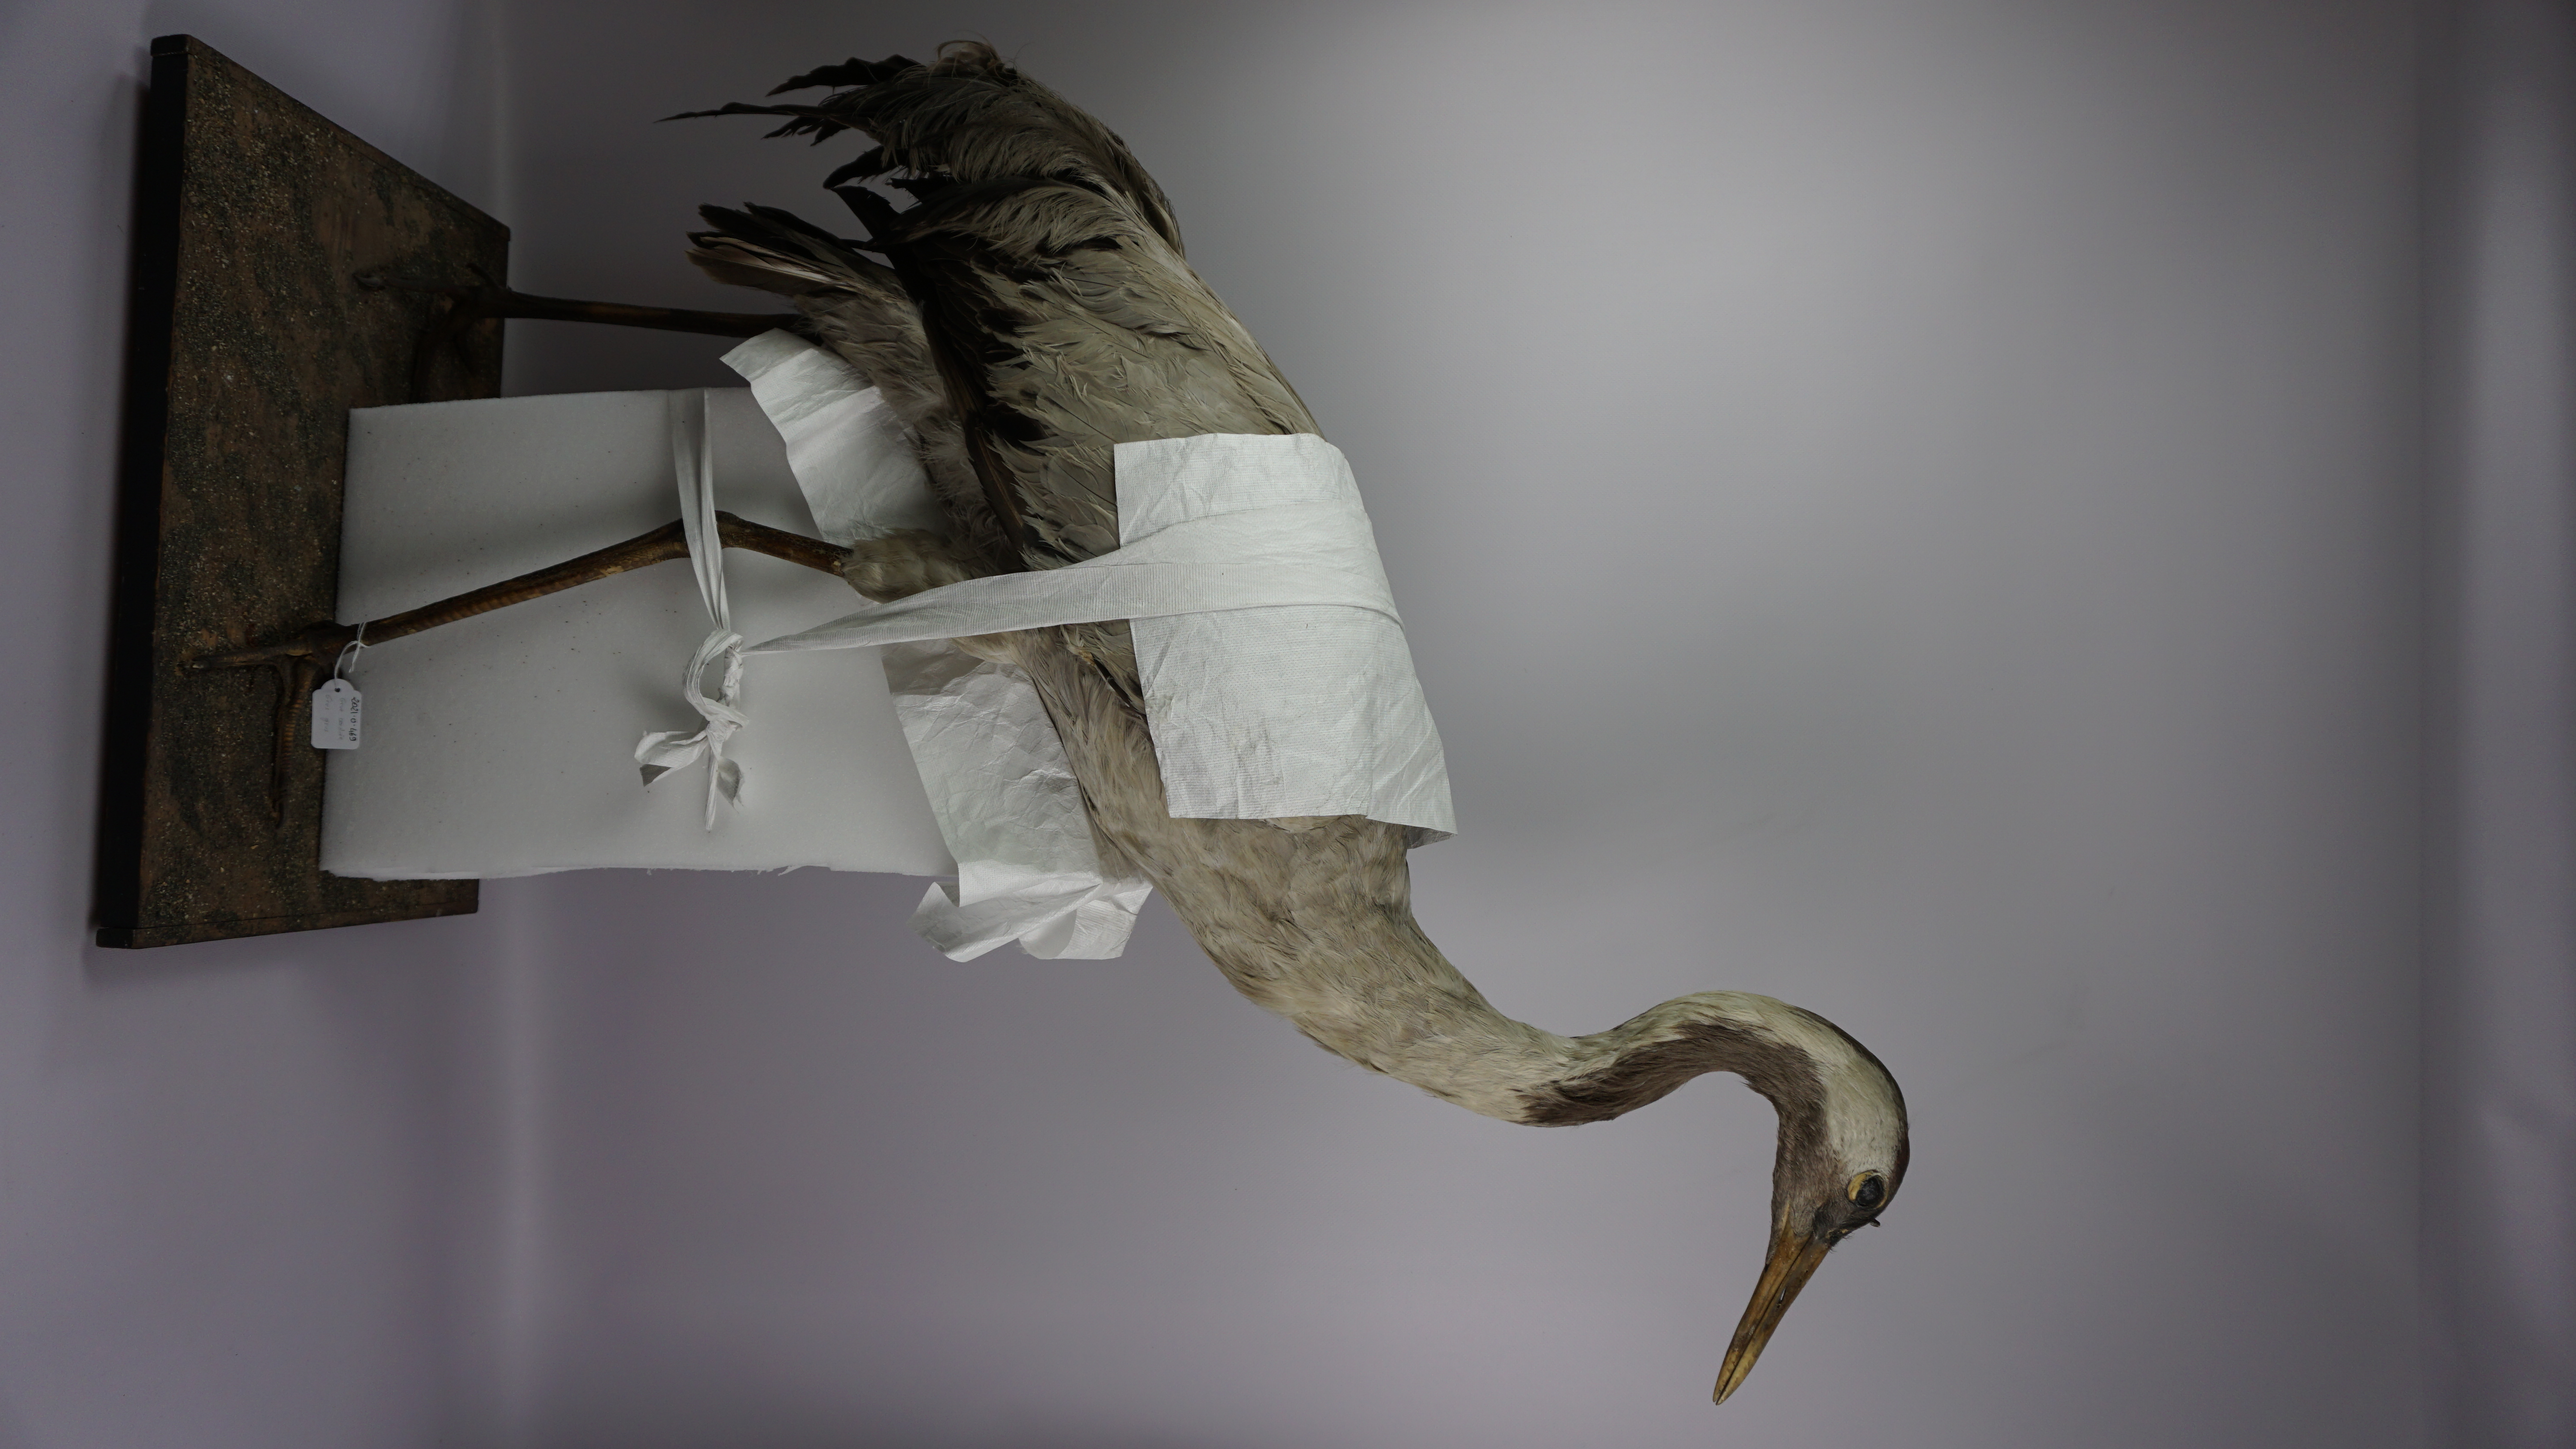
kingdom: Animalia
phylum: Chordata
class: Aves
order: Gruiformes
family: Gruidae
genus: Grus
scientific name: Grus grus
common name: Common crane
